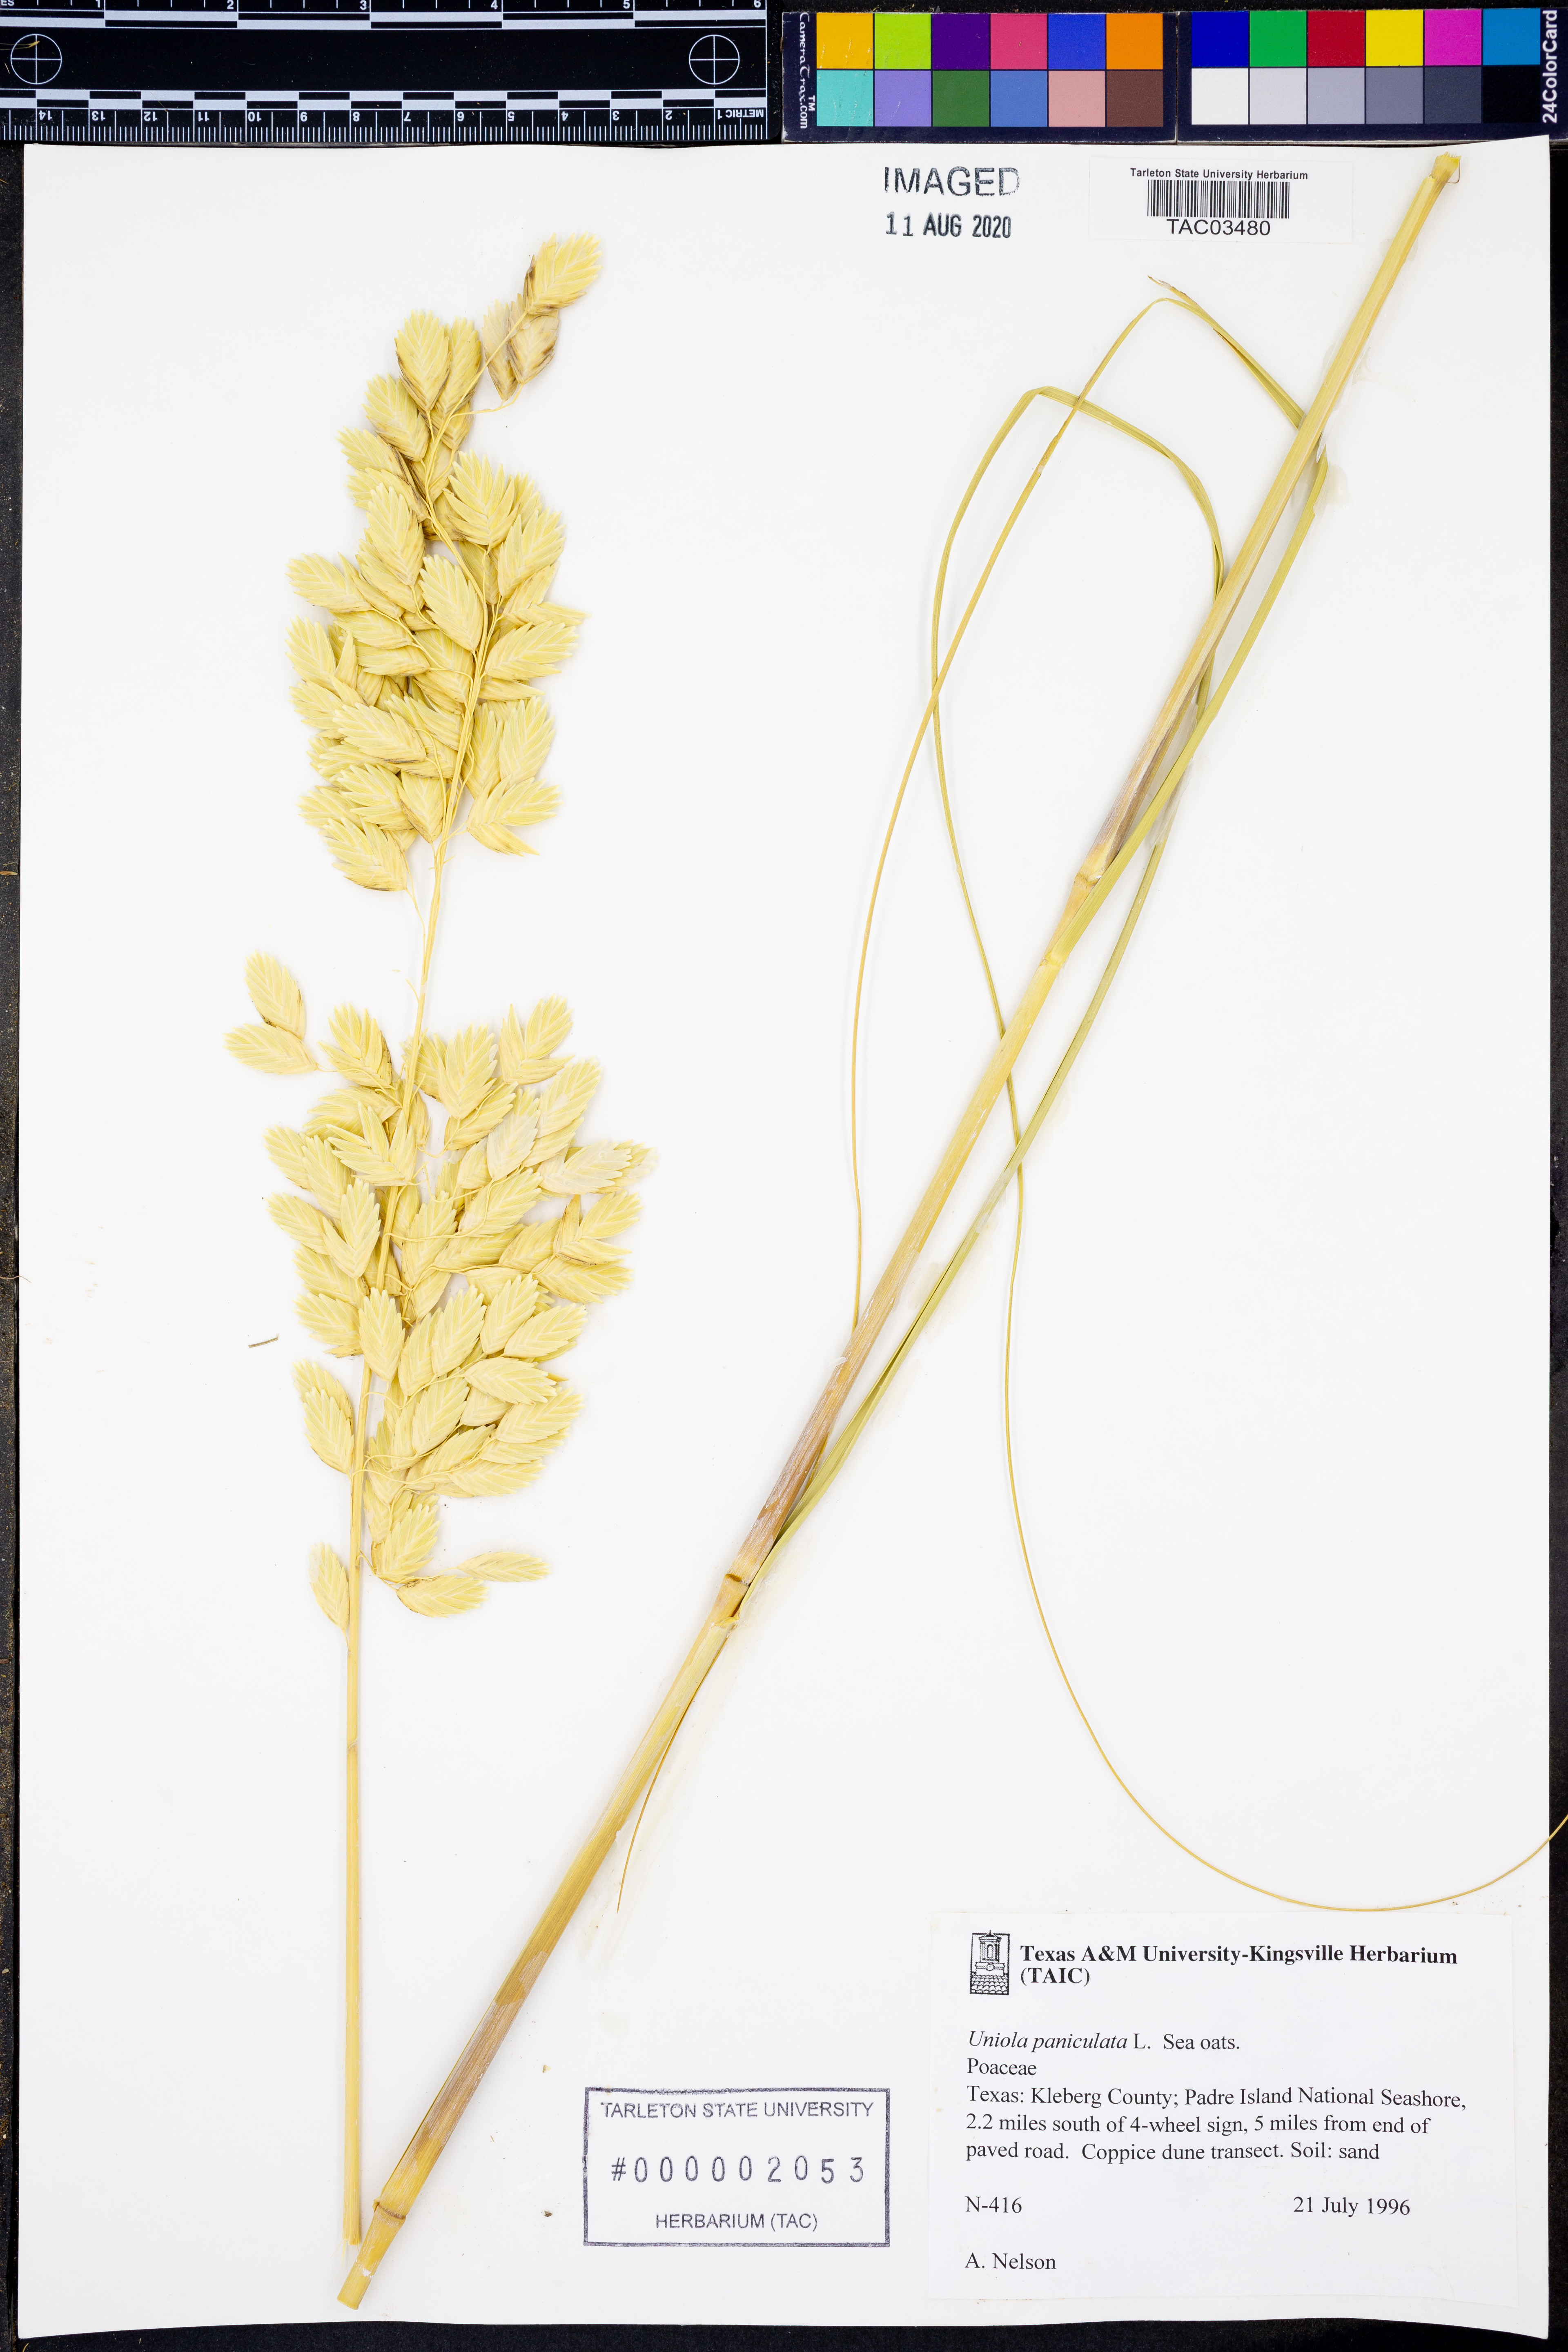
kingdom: Plantae
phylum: Tracheophyta
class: Liliopsida
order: Poales
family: Poaceae
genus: Uniola
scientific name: Uniola paniculata
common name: Seaside-oats
